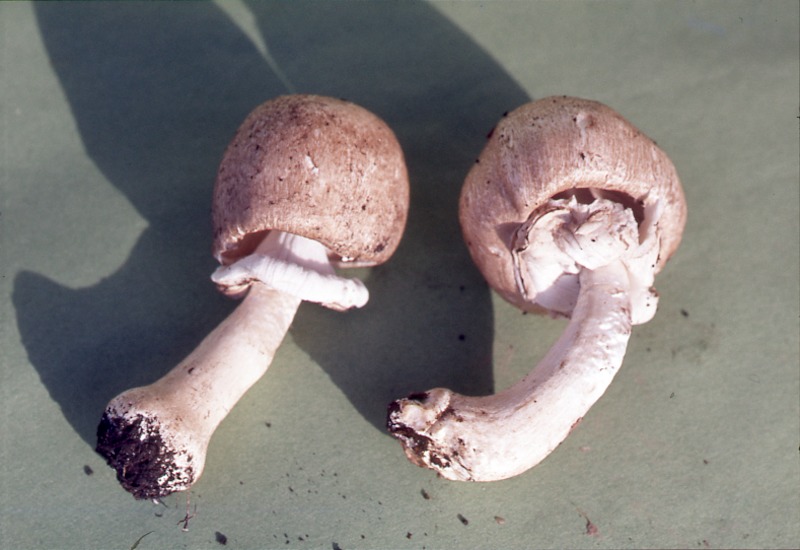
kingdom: Fungi
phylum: Basidiomycota
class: Agaricomycetes
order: Agaricales
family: Agaricaceae
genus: Agaricus
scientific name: Agaricus moelleri
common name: Inky mushroom
